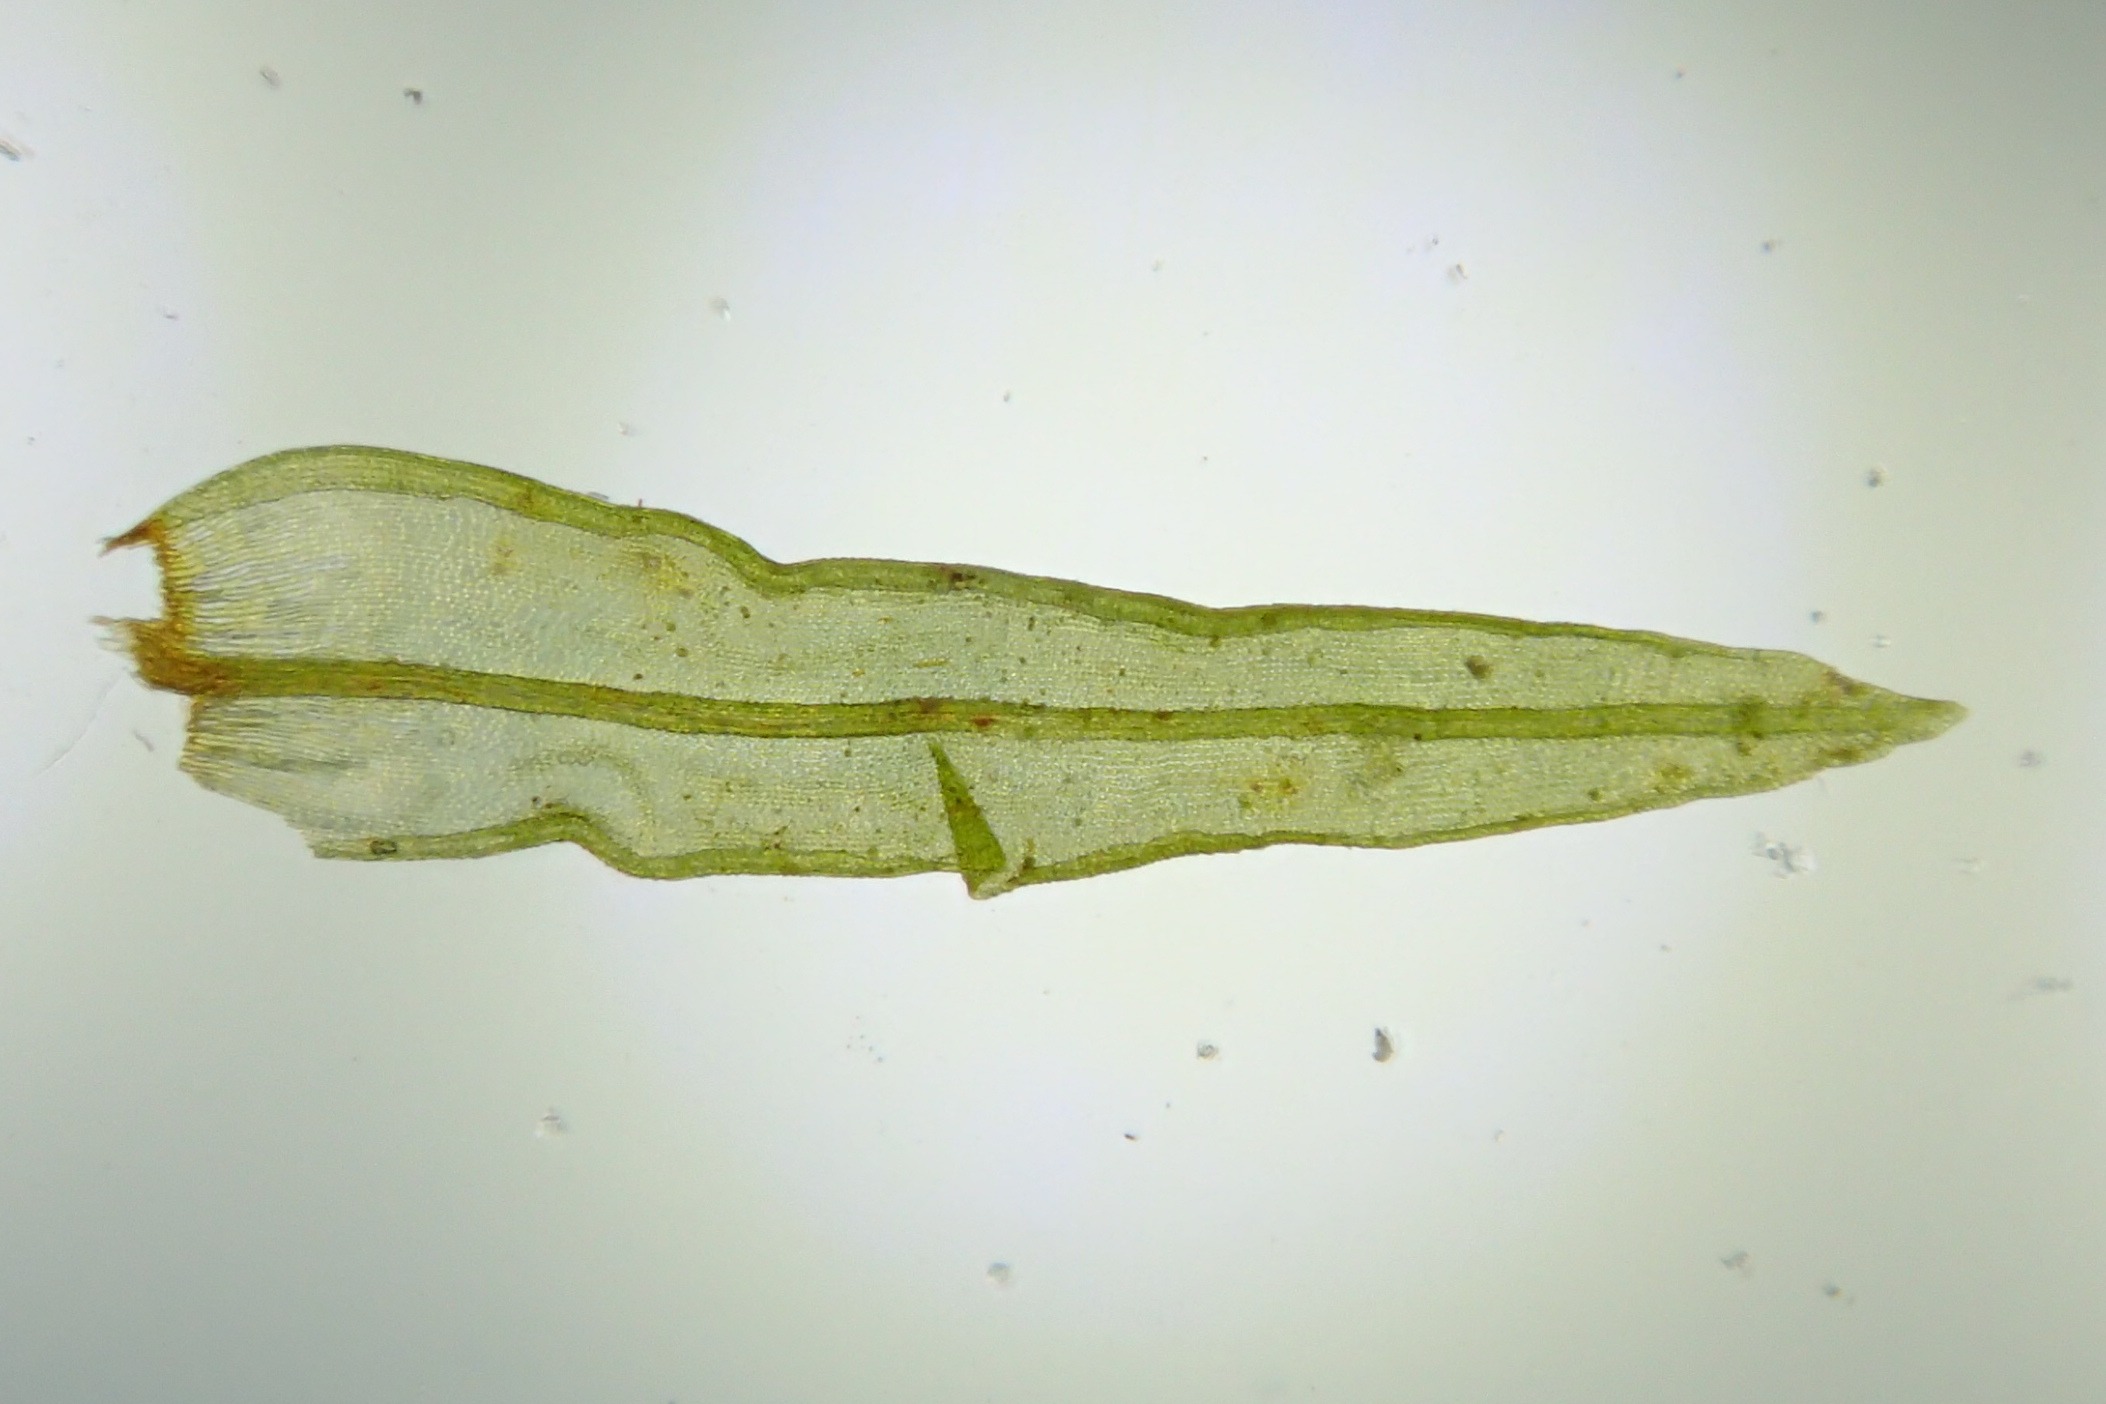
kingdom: Plantae
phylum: Bryophyta
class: Bryopsida
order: Orthotrichales
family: Orthotrichaceae
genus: Lewinskya
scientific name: Lewinskya affinis
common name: Almindelig furehætte
